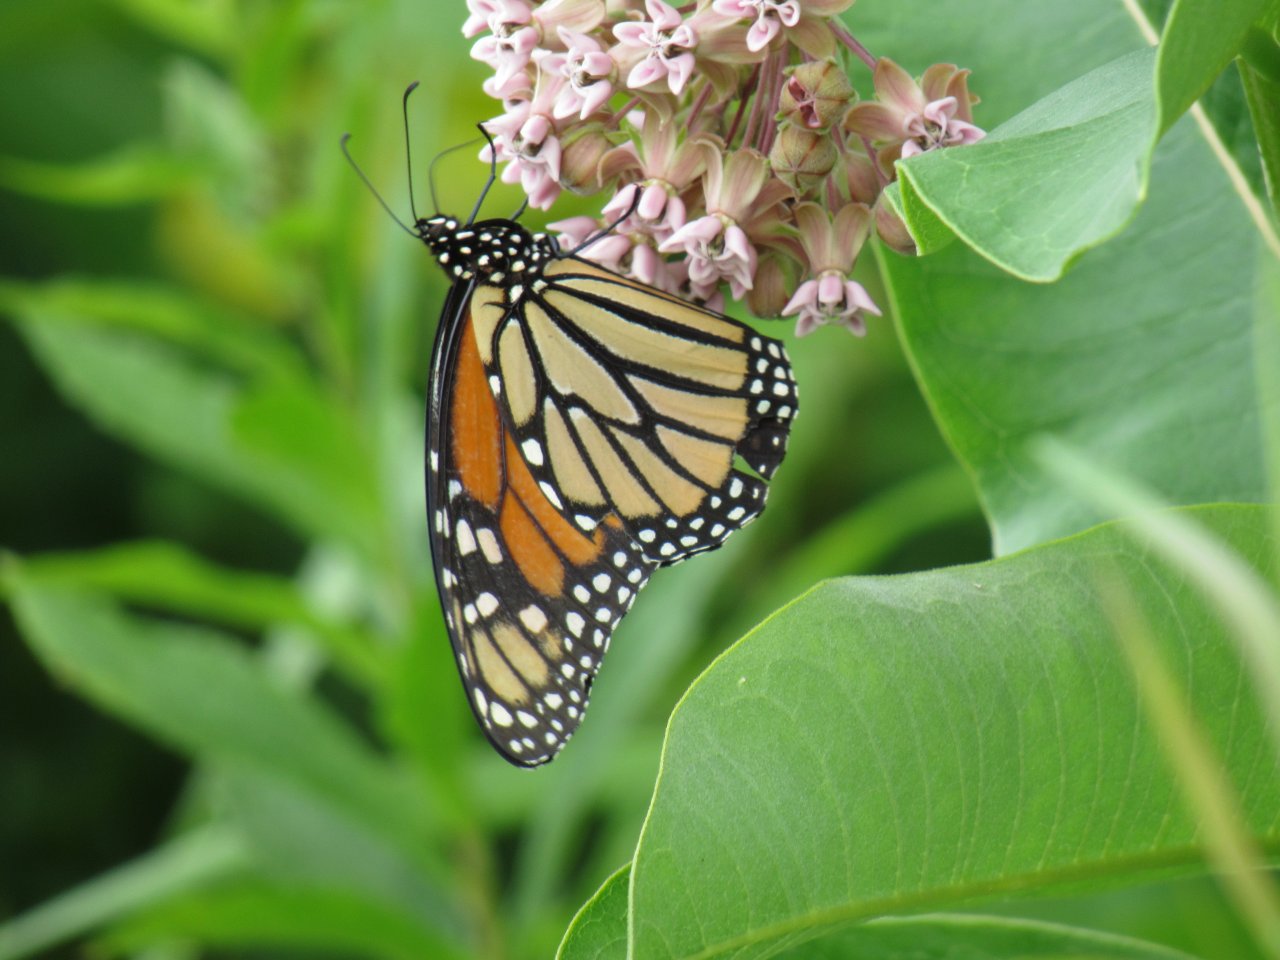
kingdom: Animalia
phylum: Arthropoda
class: Insecta
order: Lepidoptera
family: Nymphalidae
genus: Danaus
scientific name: Danaus plexippus
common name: Monarch
